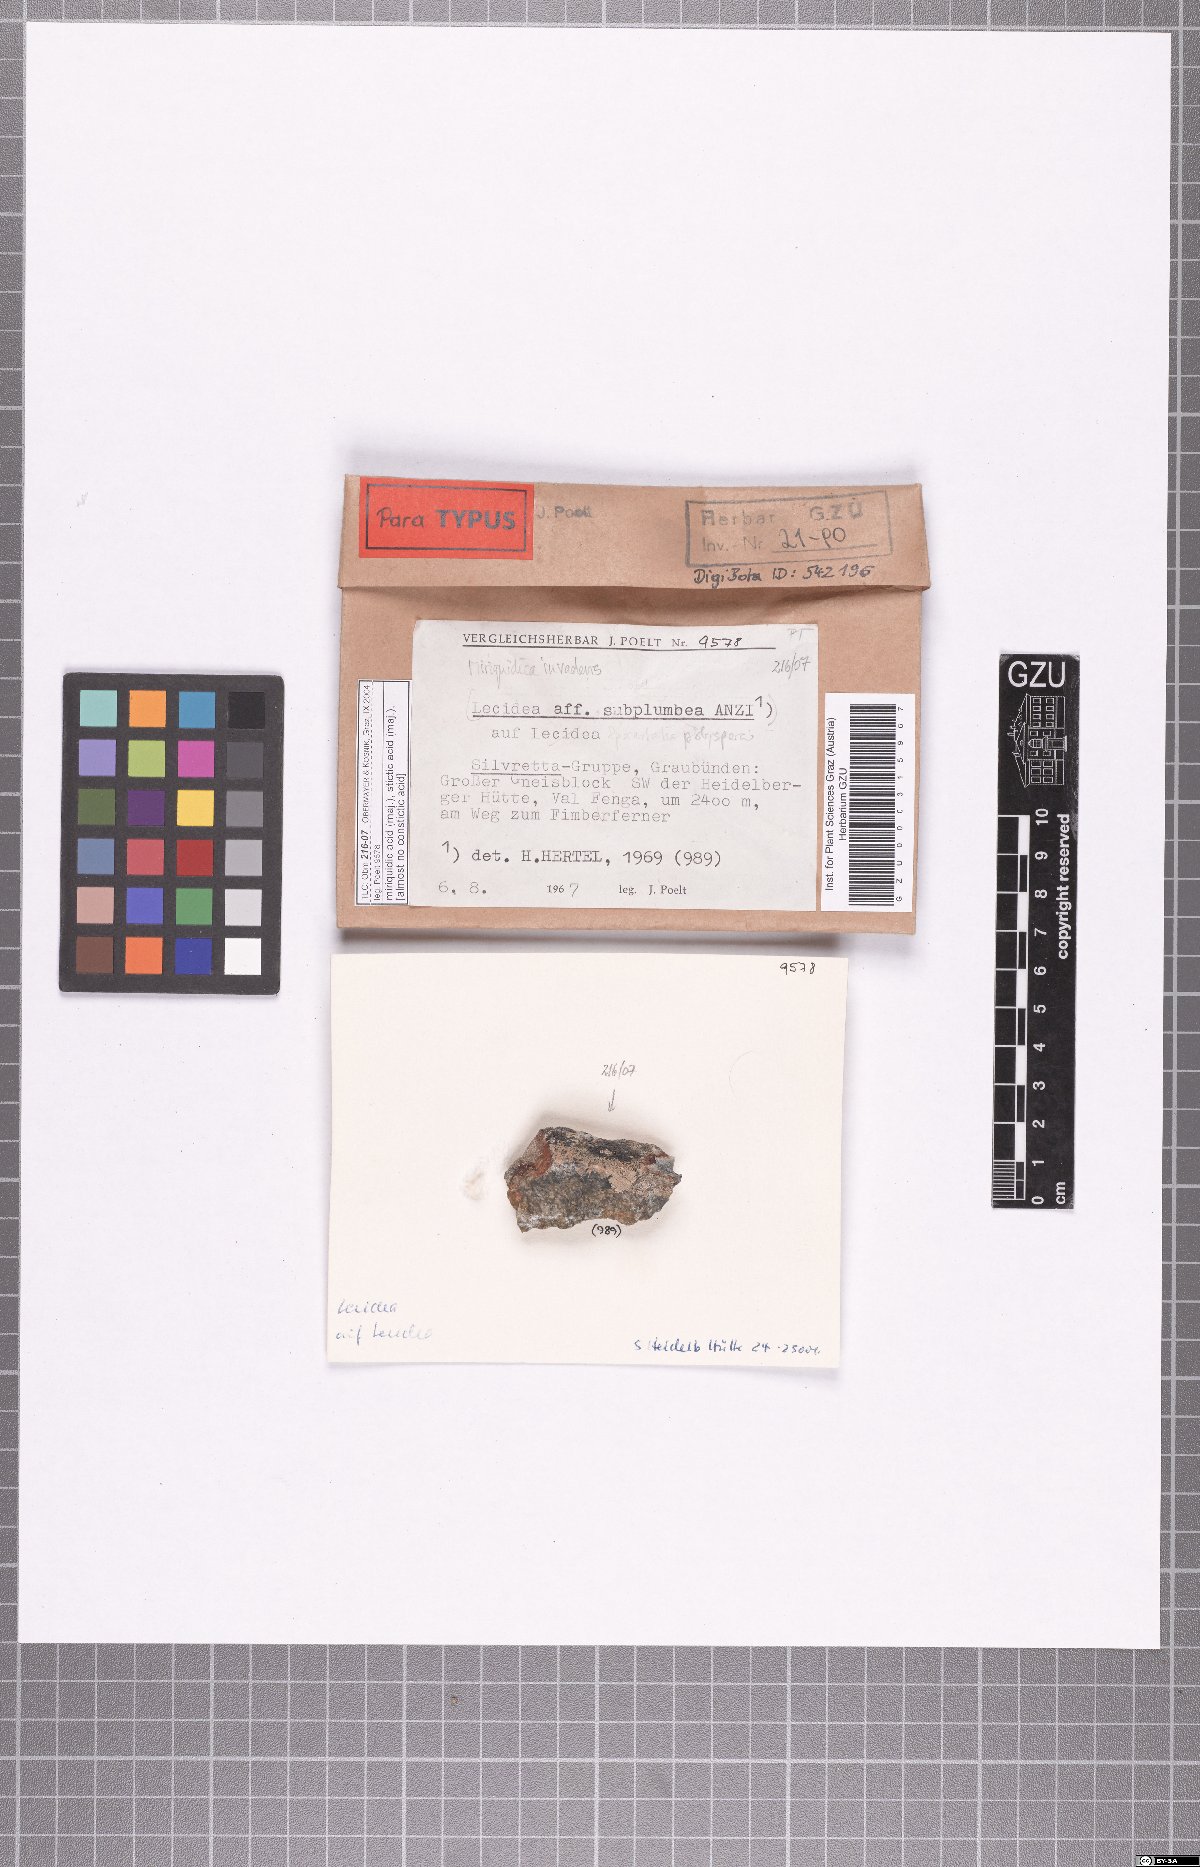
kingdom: Fungi
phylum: Ascomycota
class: Lecanoromycetes
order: Lecanorales
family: Lecanoraceae
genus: Miriquidica
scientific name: Miriquidica invadens
